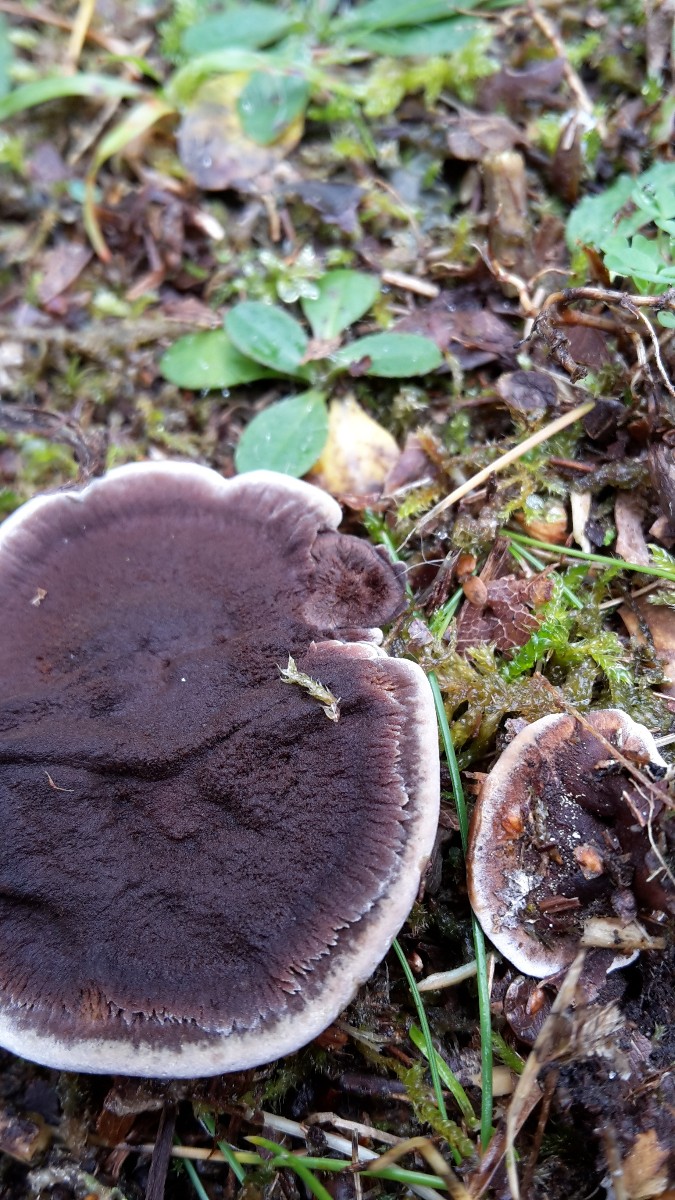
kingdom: Fungi
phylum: Basidiomycota
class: Agaricomycetes
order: Hymenochaetales
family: Hymenochaetaceae
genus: Coltricia
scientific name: Coltricia perennis
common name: almindelig sandporesvamp
